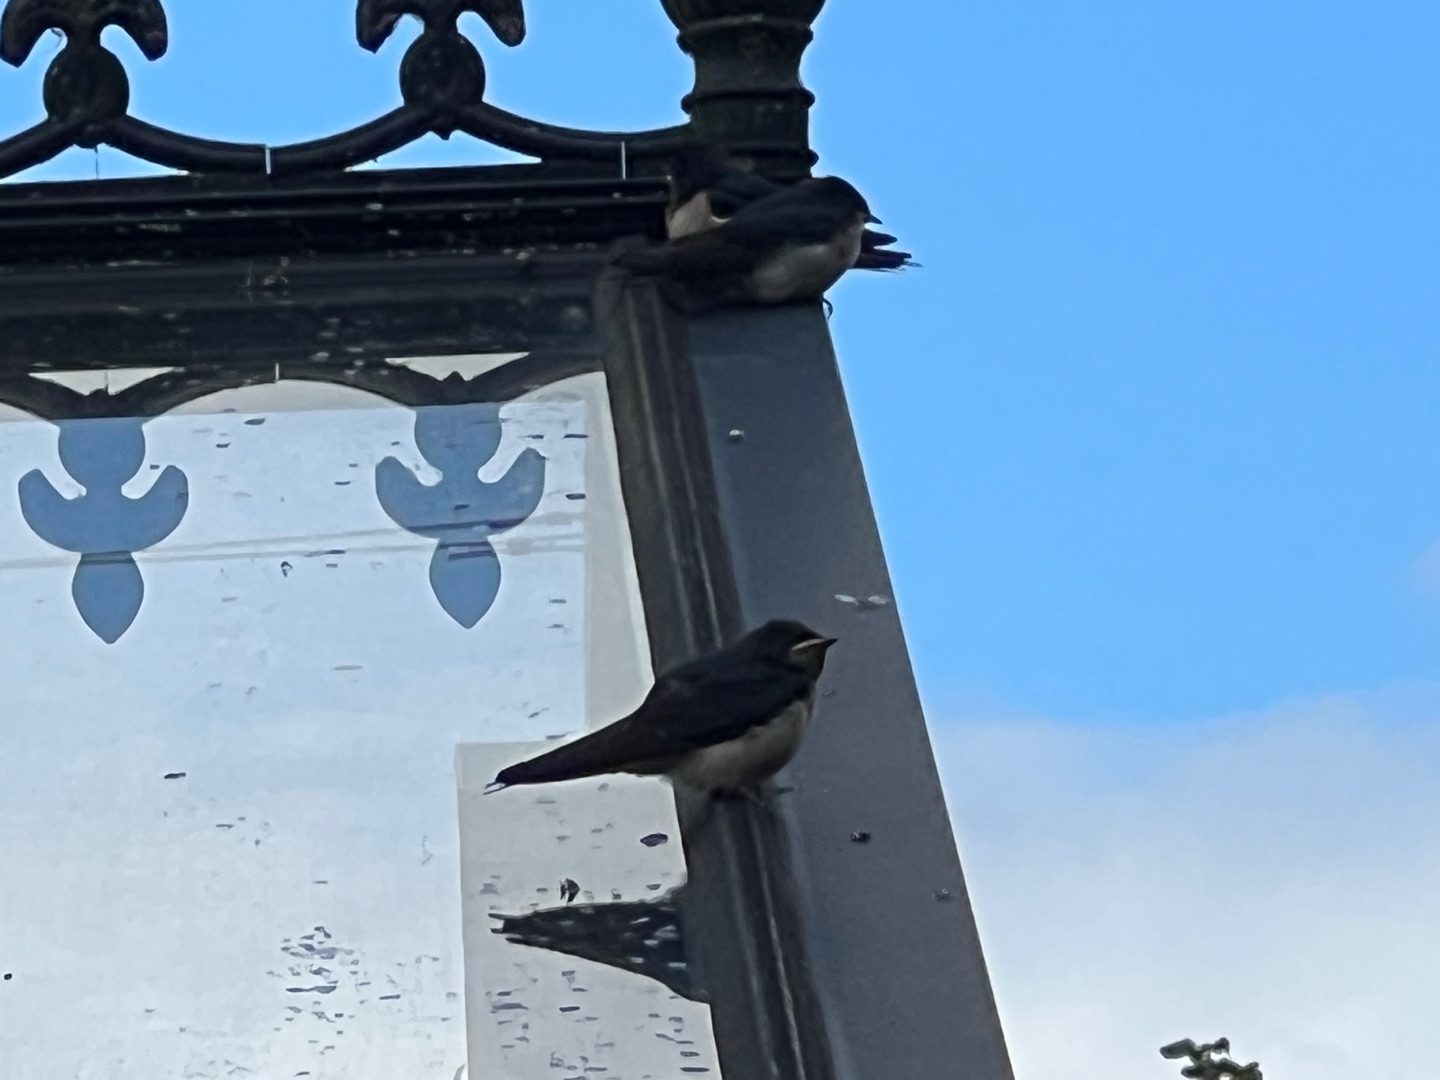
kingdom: Animalia
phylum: Chordata
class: Aves
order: Passeriformes
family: Hirundinidae
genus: Hirundo
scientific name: Hirundo rustica
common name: Landsvale
